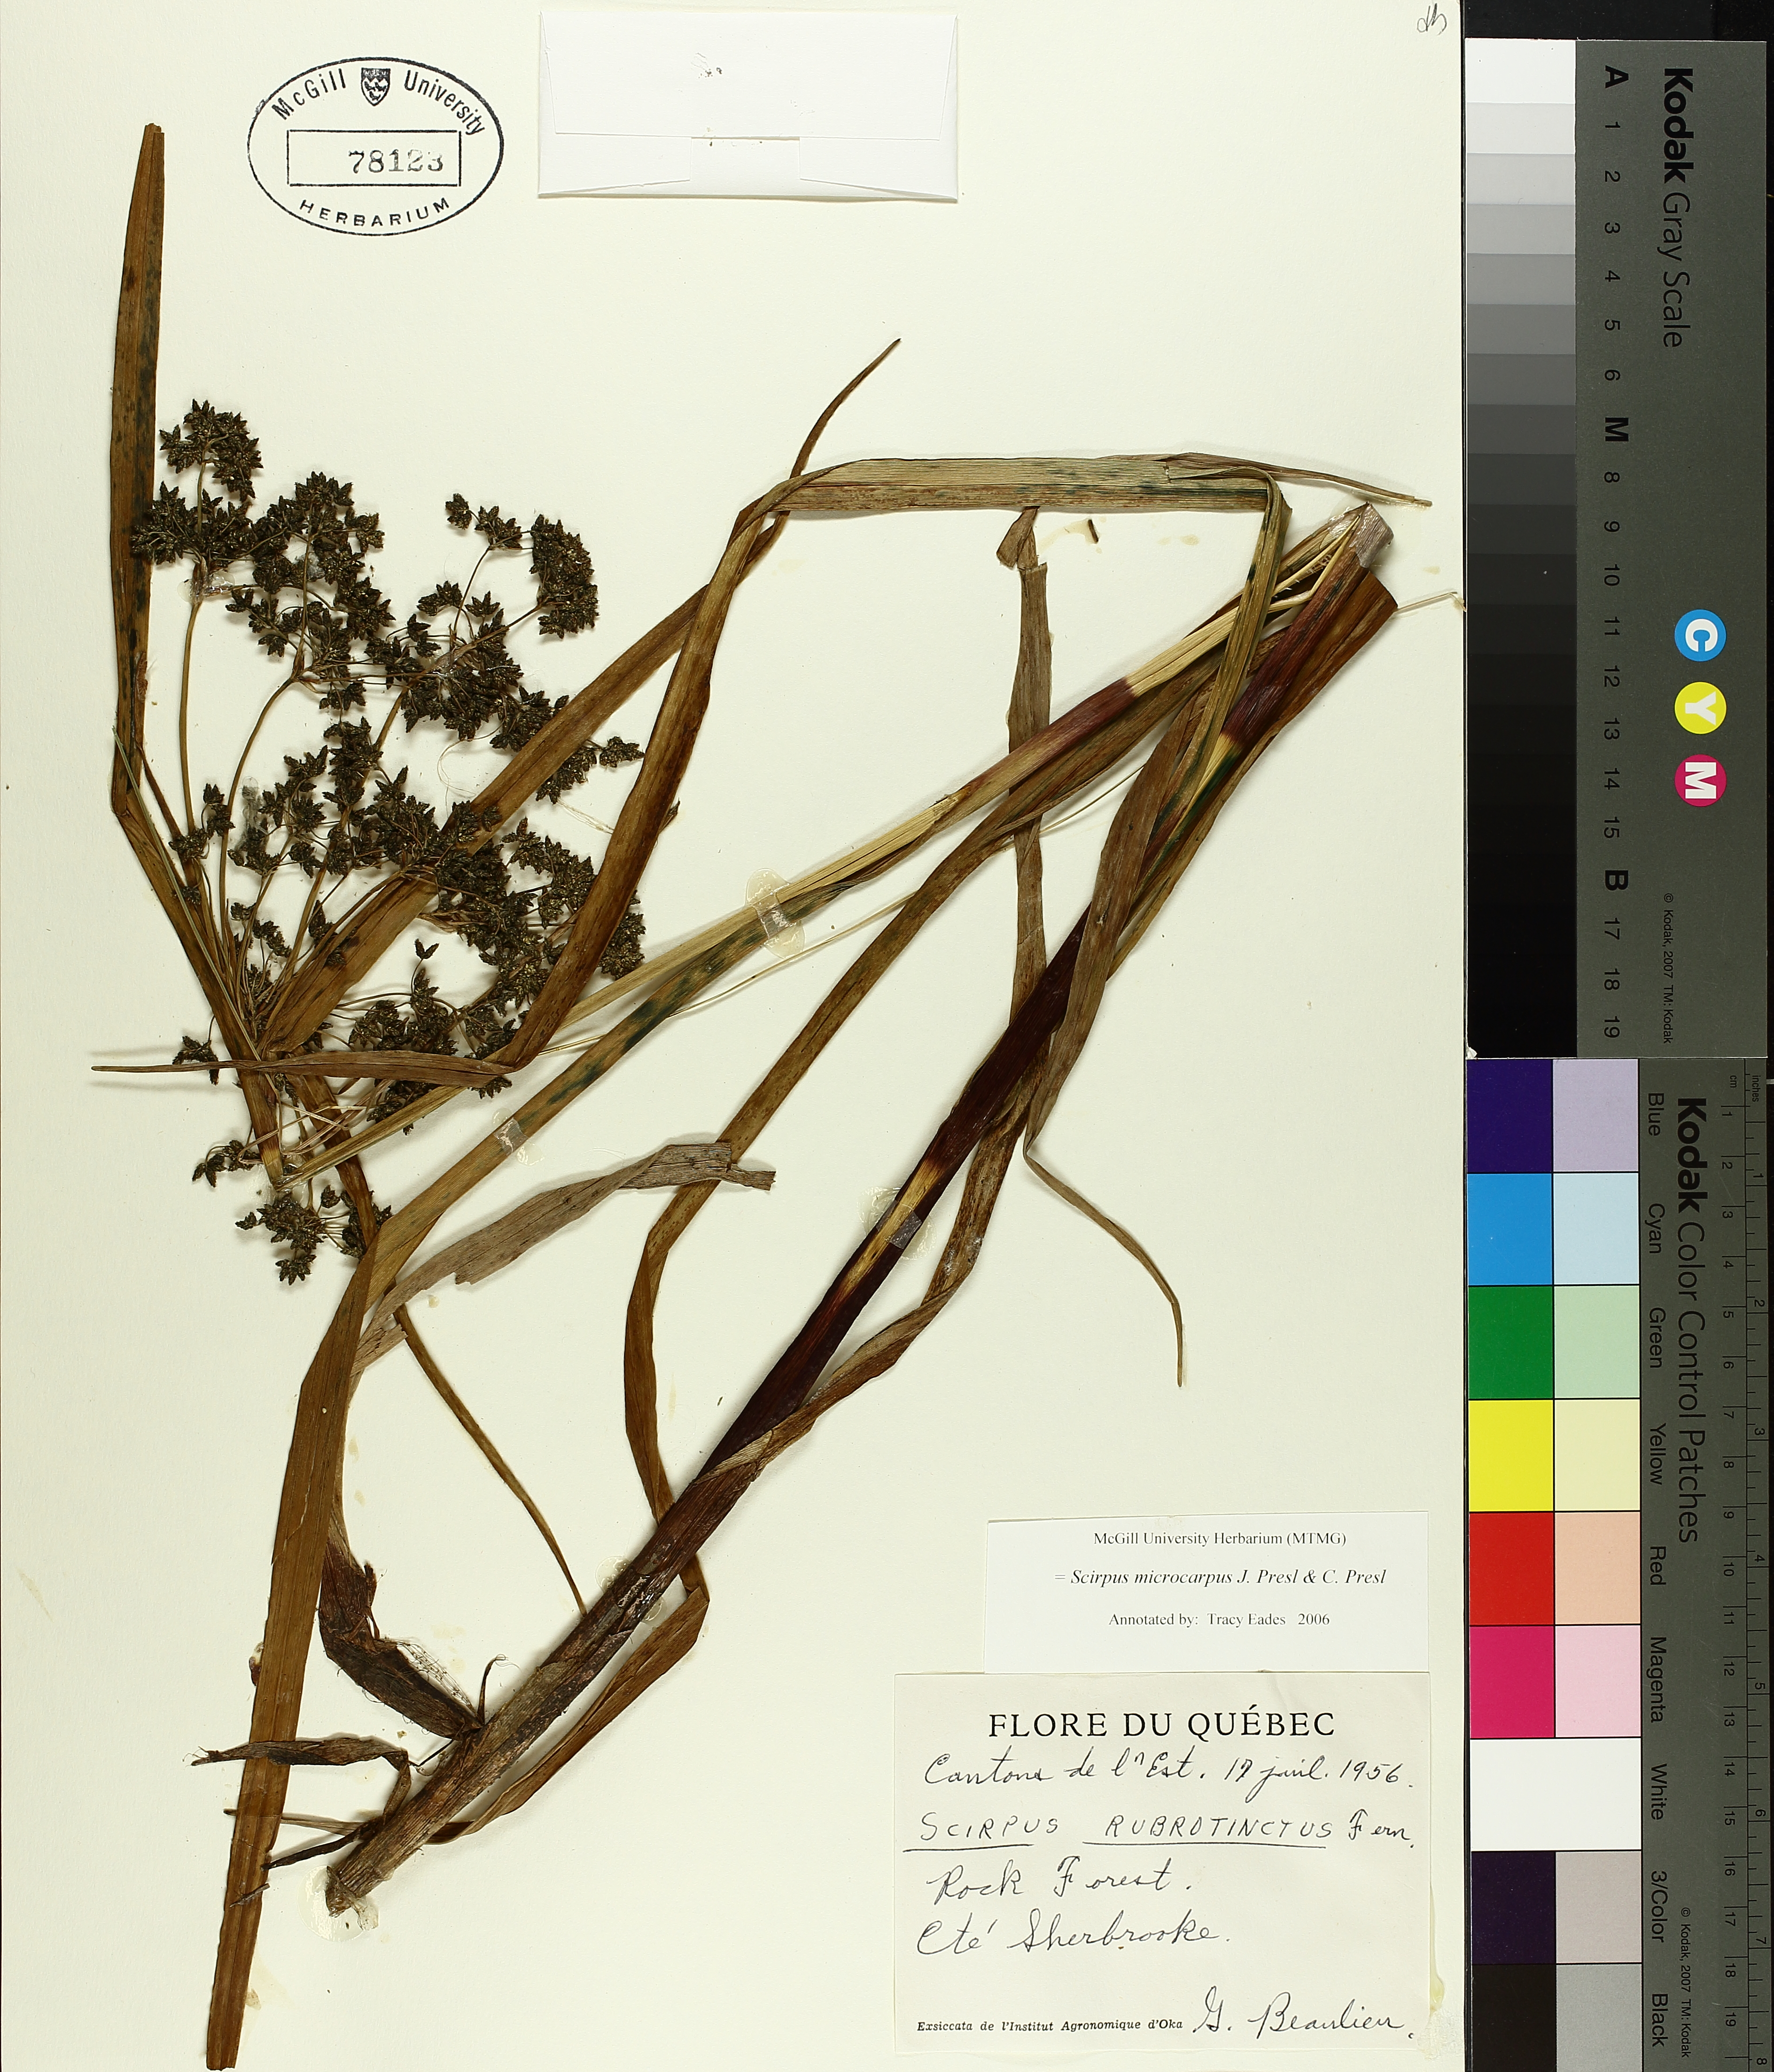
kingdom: Plantae
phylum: Tracheophyta
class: Liliopsida
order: Poales
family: Cyperaceae
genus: Scirpus
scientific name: Scirpus microcarpus
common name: Panicled bulrush
